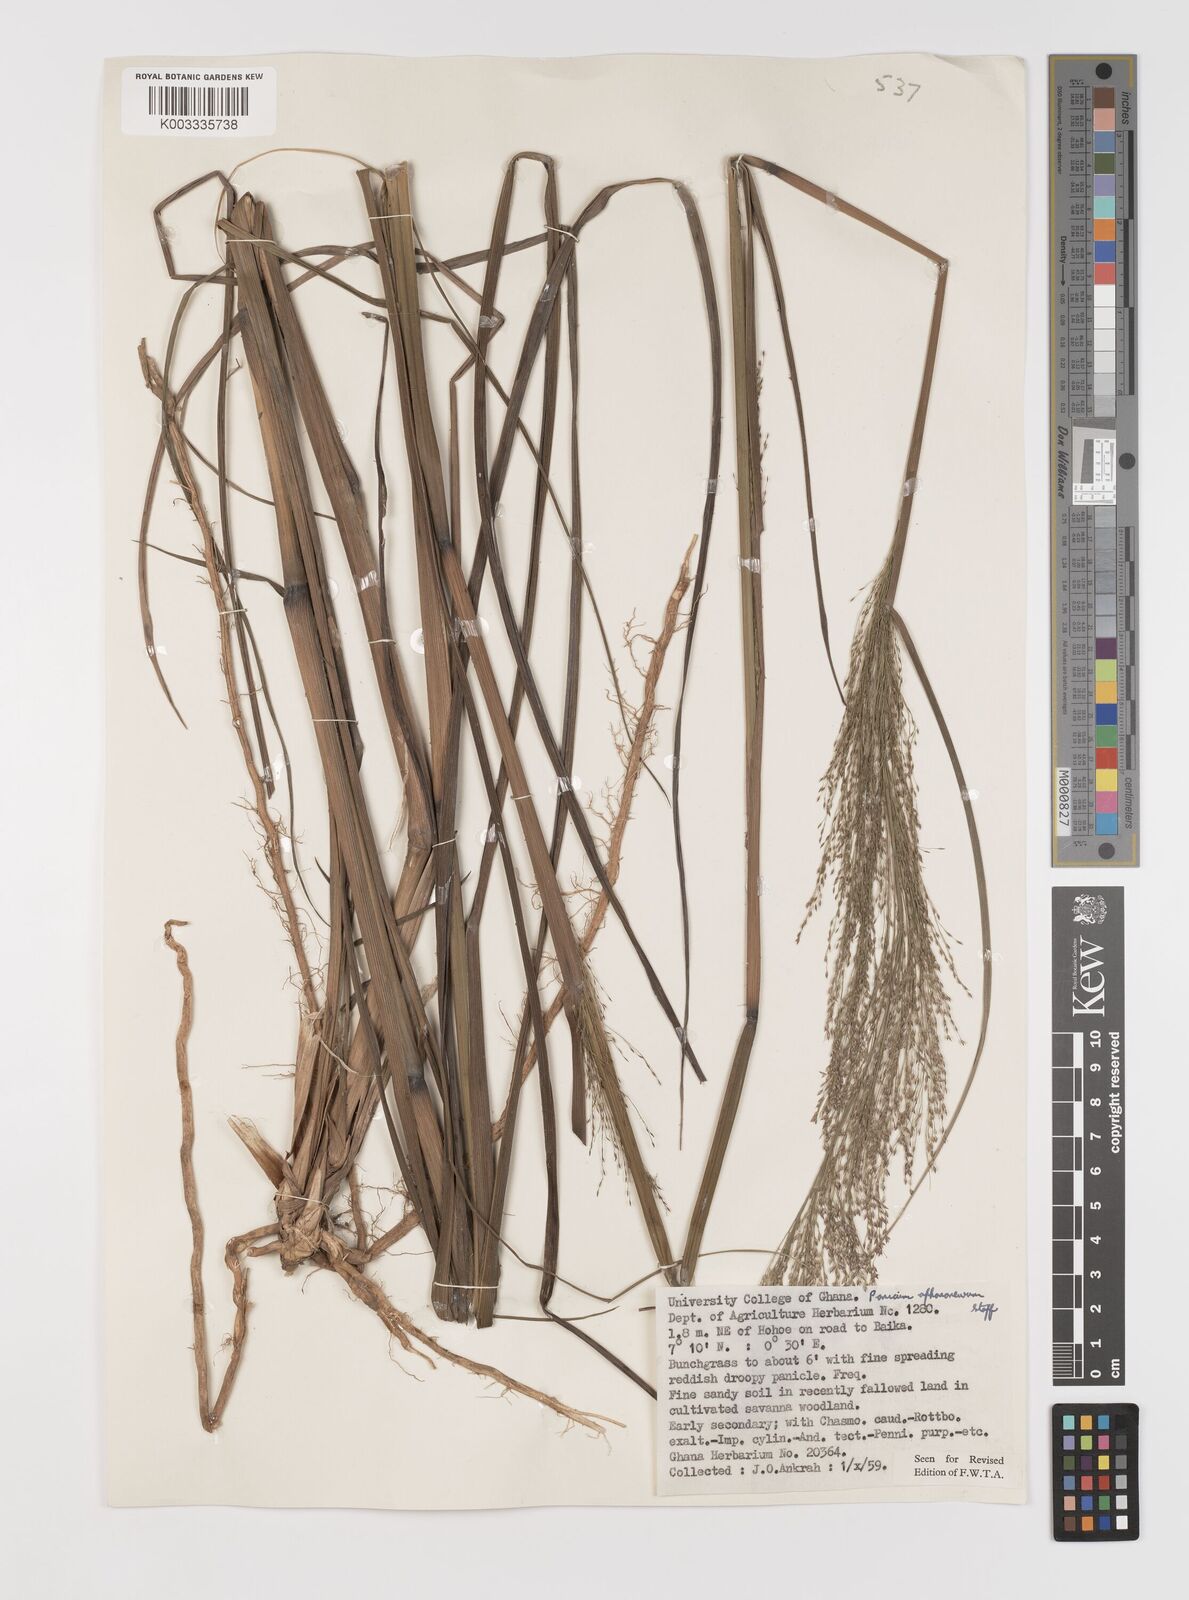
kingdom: Plantae
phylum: Tracheophyta
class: Liliopsida
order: Poales
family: Poaceae
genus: Panicum
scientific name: Panicum fluviicola
